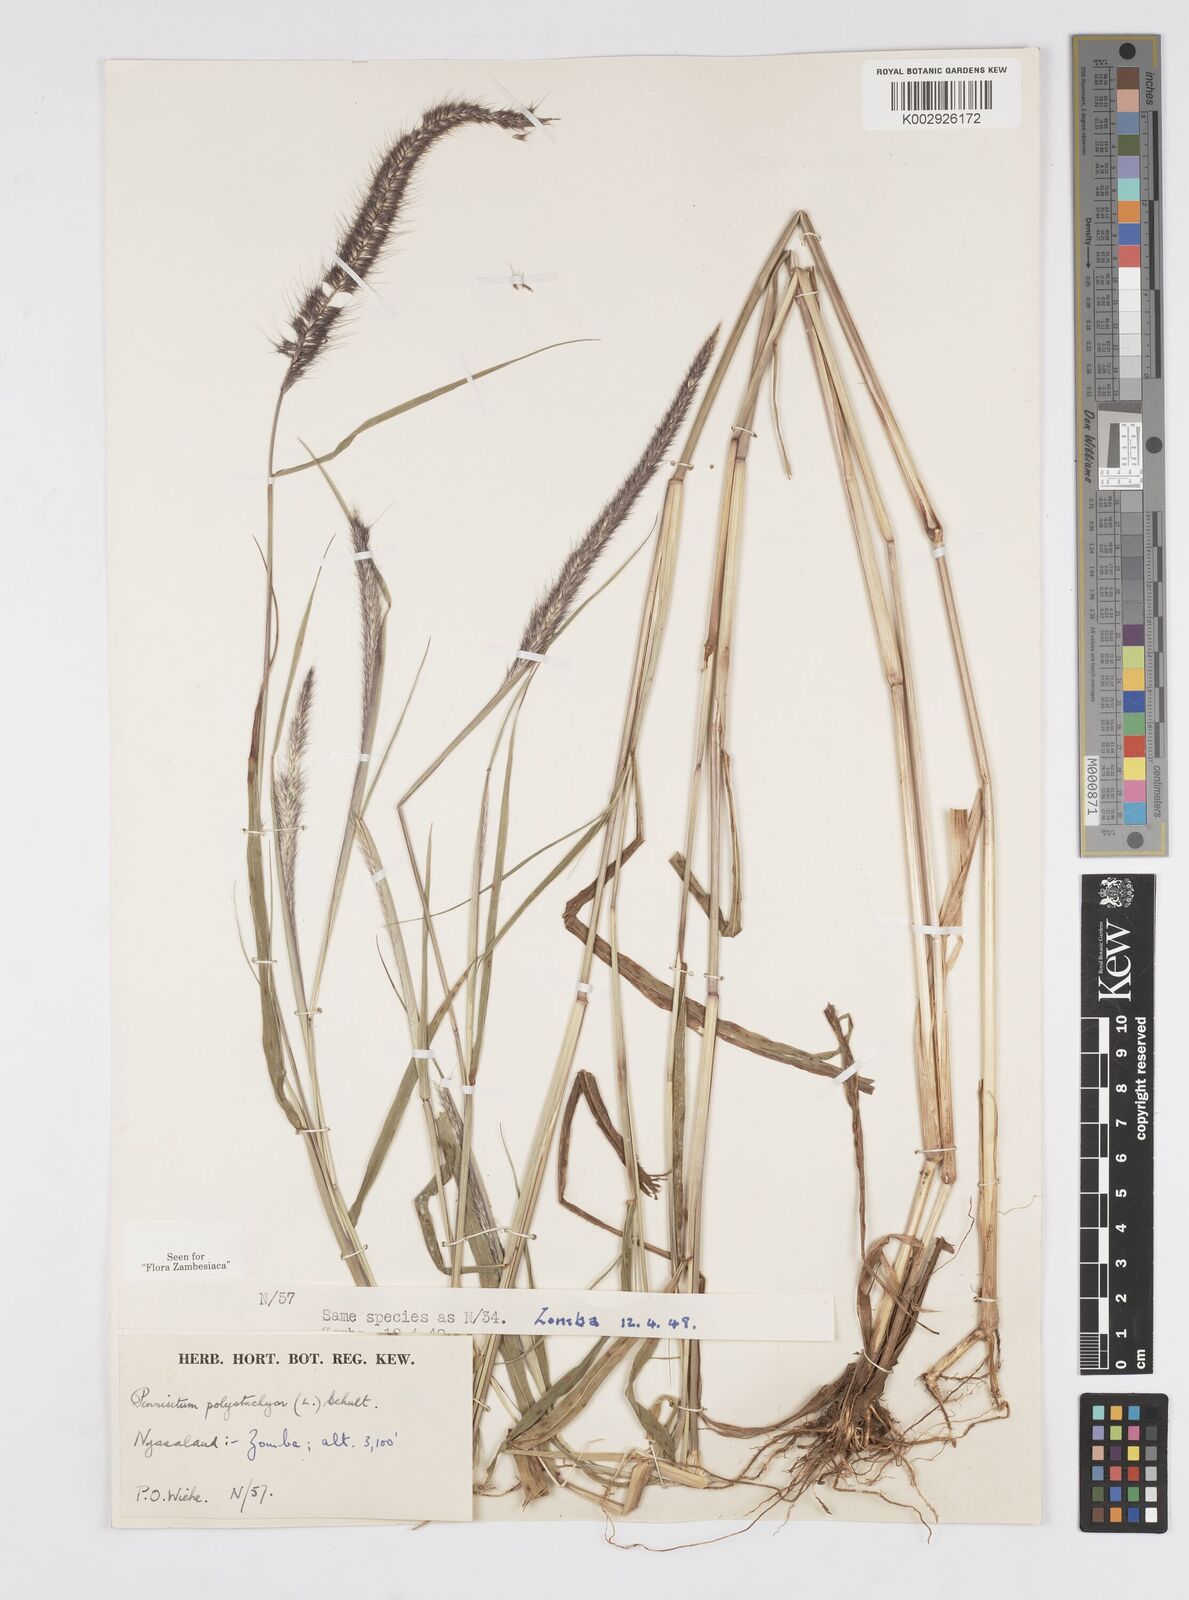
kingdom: Plantae
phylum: Tracheophyta
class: Liliopsida
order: Poales
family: Poaceae
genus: Setaria
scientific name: Setaria parviflora
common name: Knotroot bristle-grass
